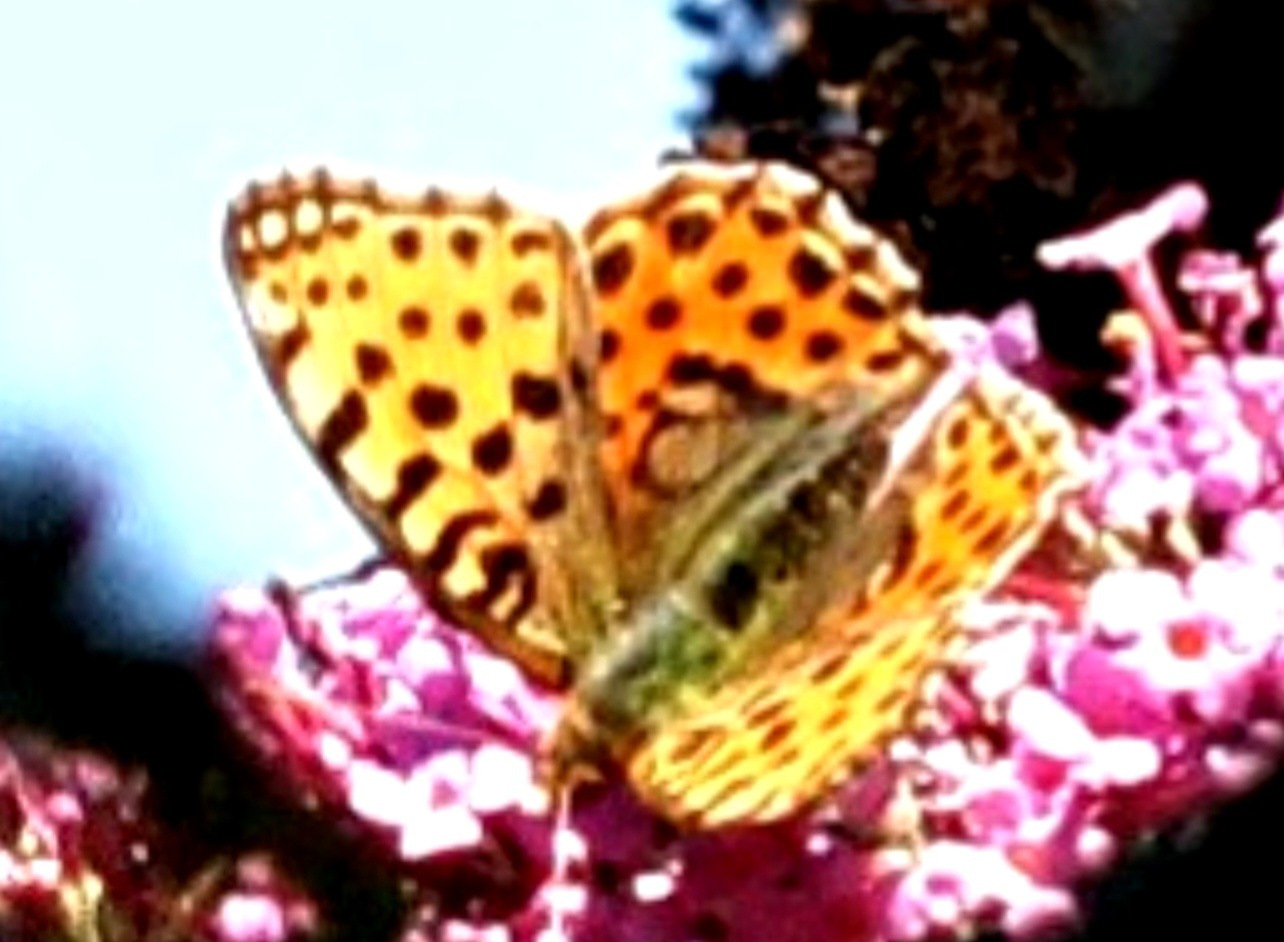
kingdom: Animalia
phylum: Arthropoda
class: Insecta
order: Lepidoptera
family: Nymphalidae
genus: Issoria
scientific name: Issoria lathonia
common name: Storplettet perlemorsommerfugl
